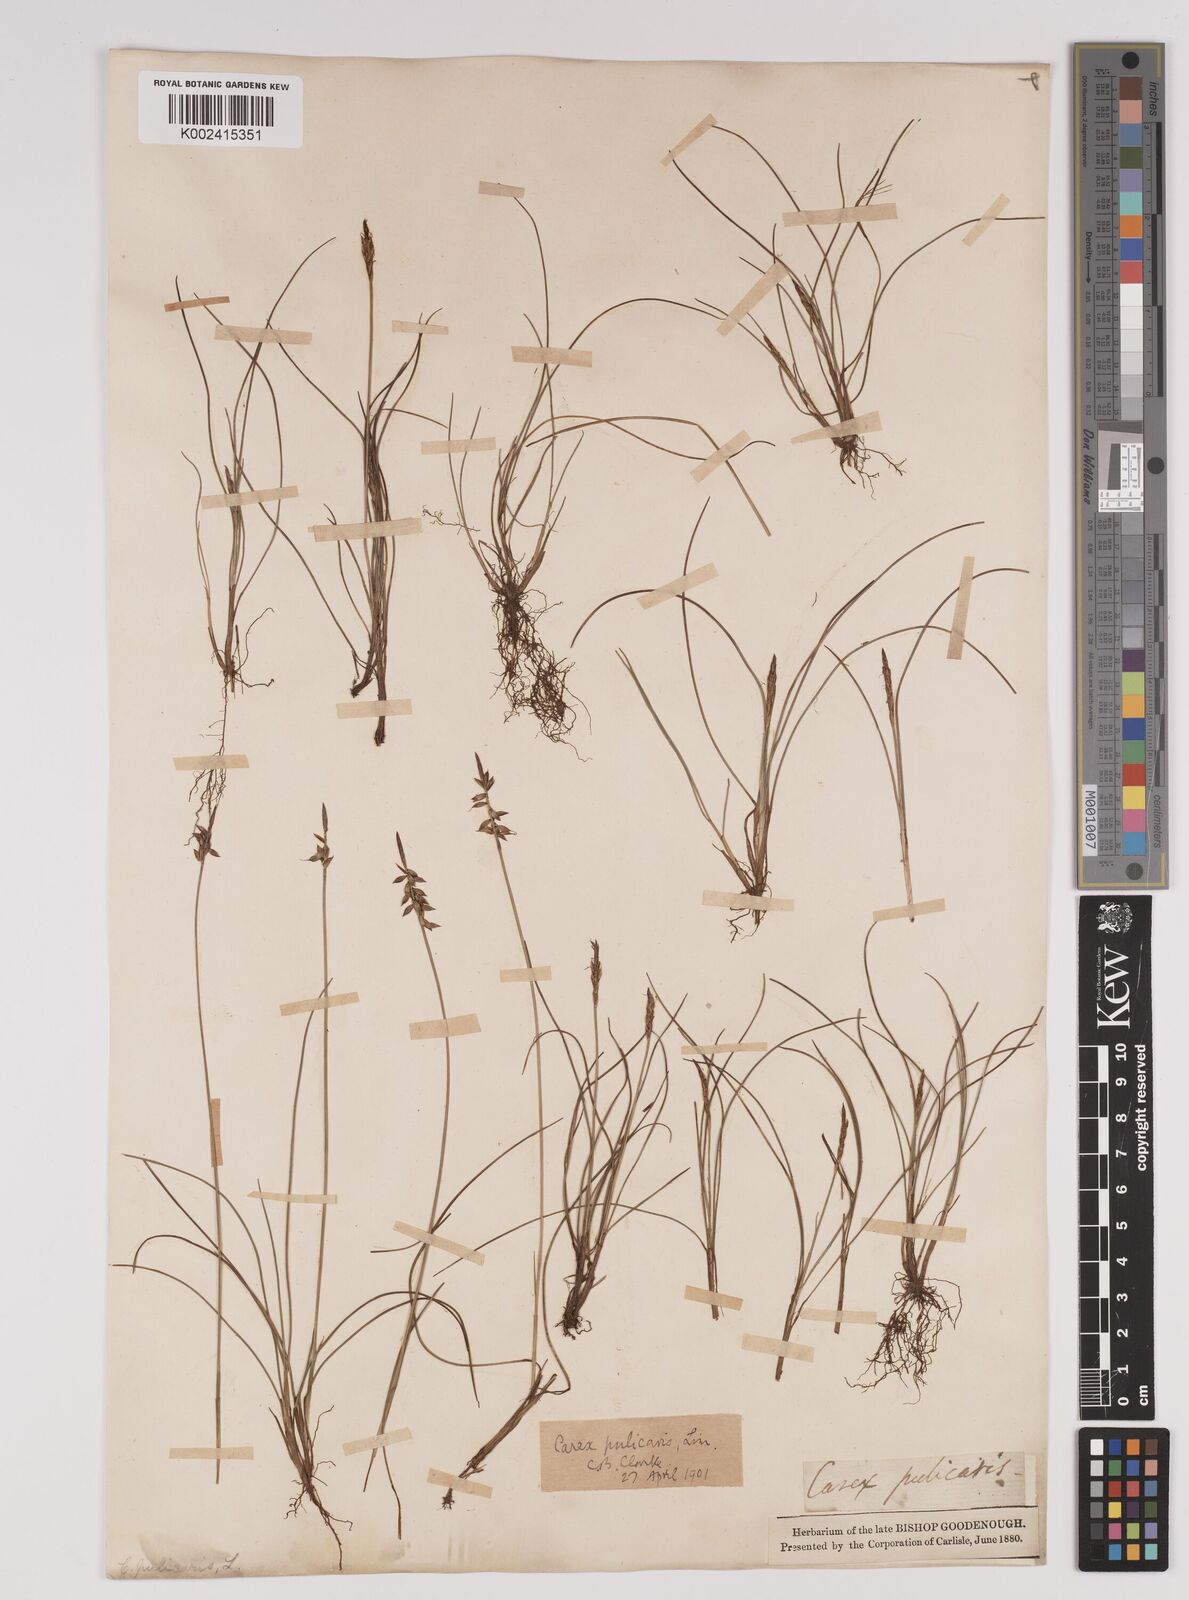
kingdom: Plantae
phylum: Tracheophyta
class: Liliopsida
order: Poales
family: Cyperaceae
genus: Carex
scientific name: Carex pulicaris
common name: Flea sedge
